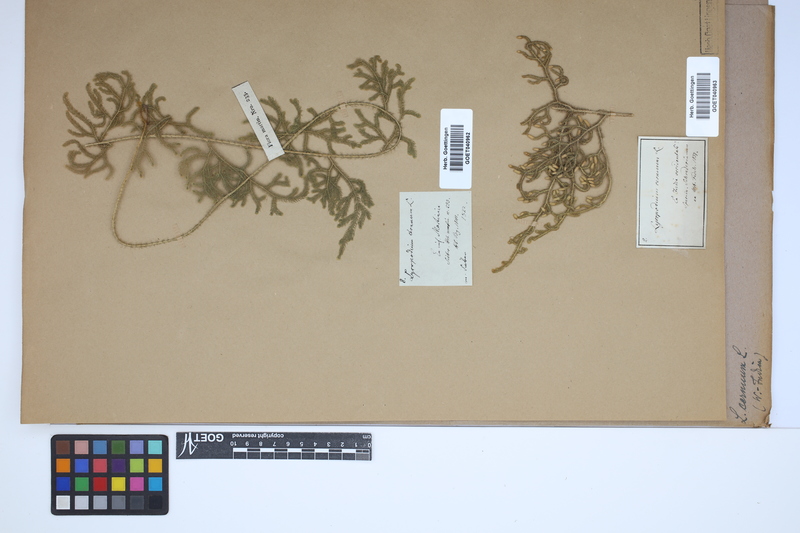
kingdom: Plantae
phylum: Tracheophyta
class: Lycopodiopsida
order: Lycopodiales
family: Lycopodiaceae
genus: Palhinhaea
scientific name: Palhinhaea cernua
